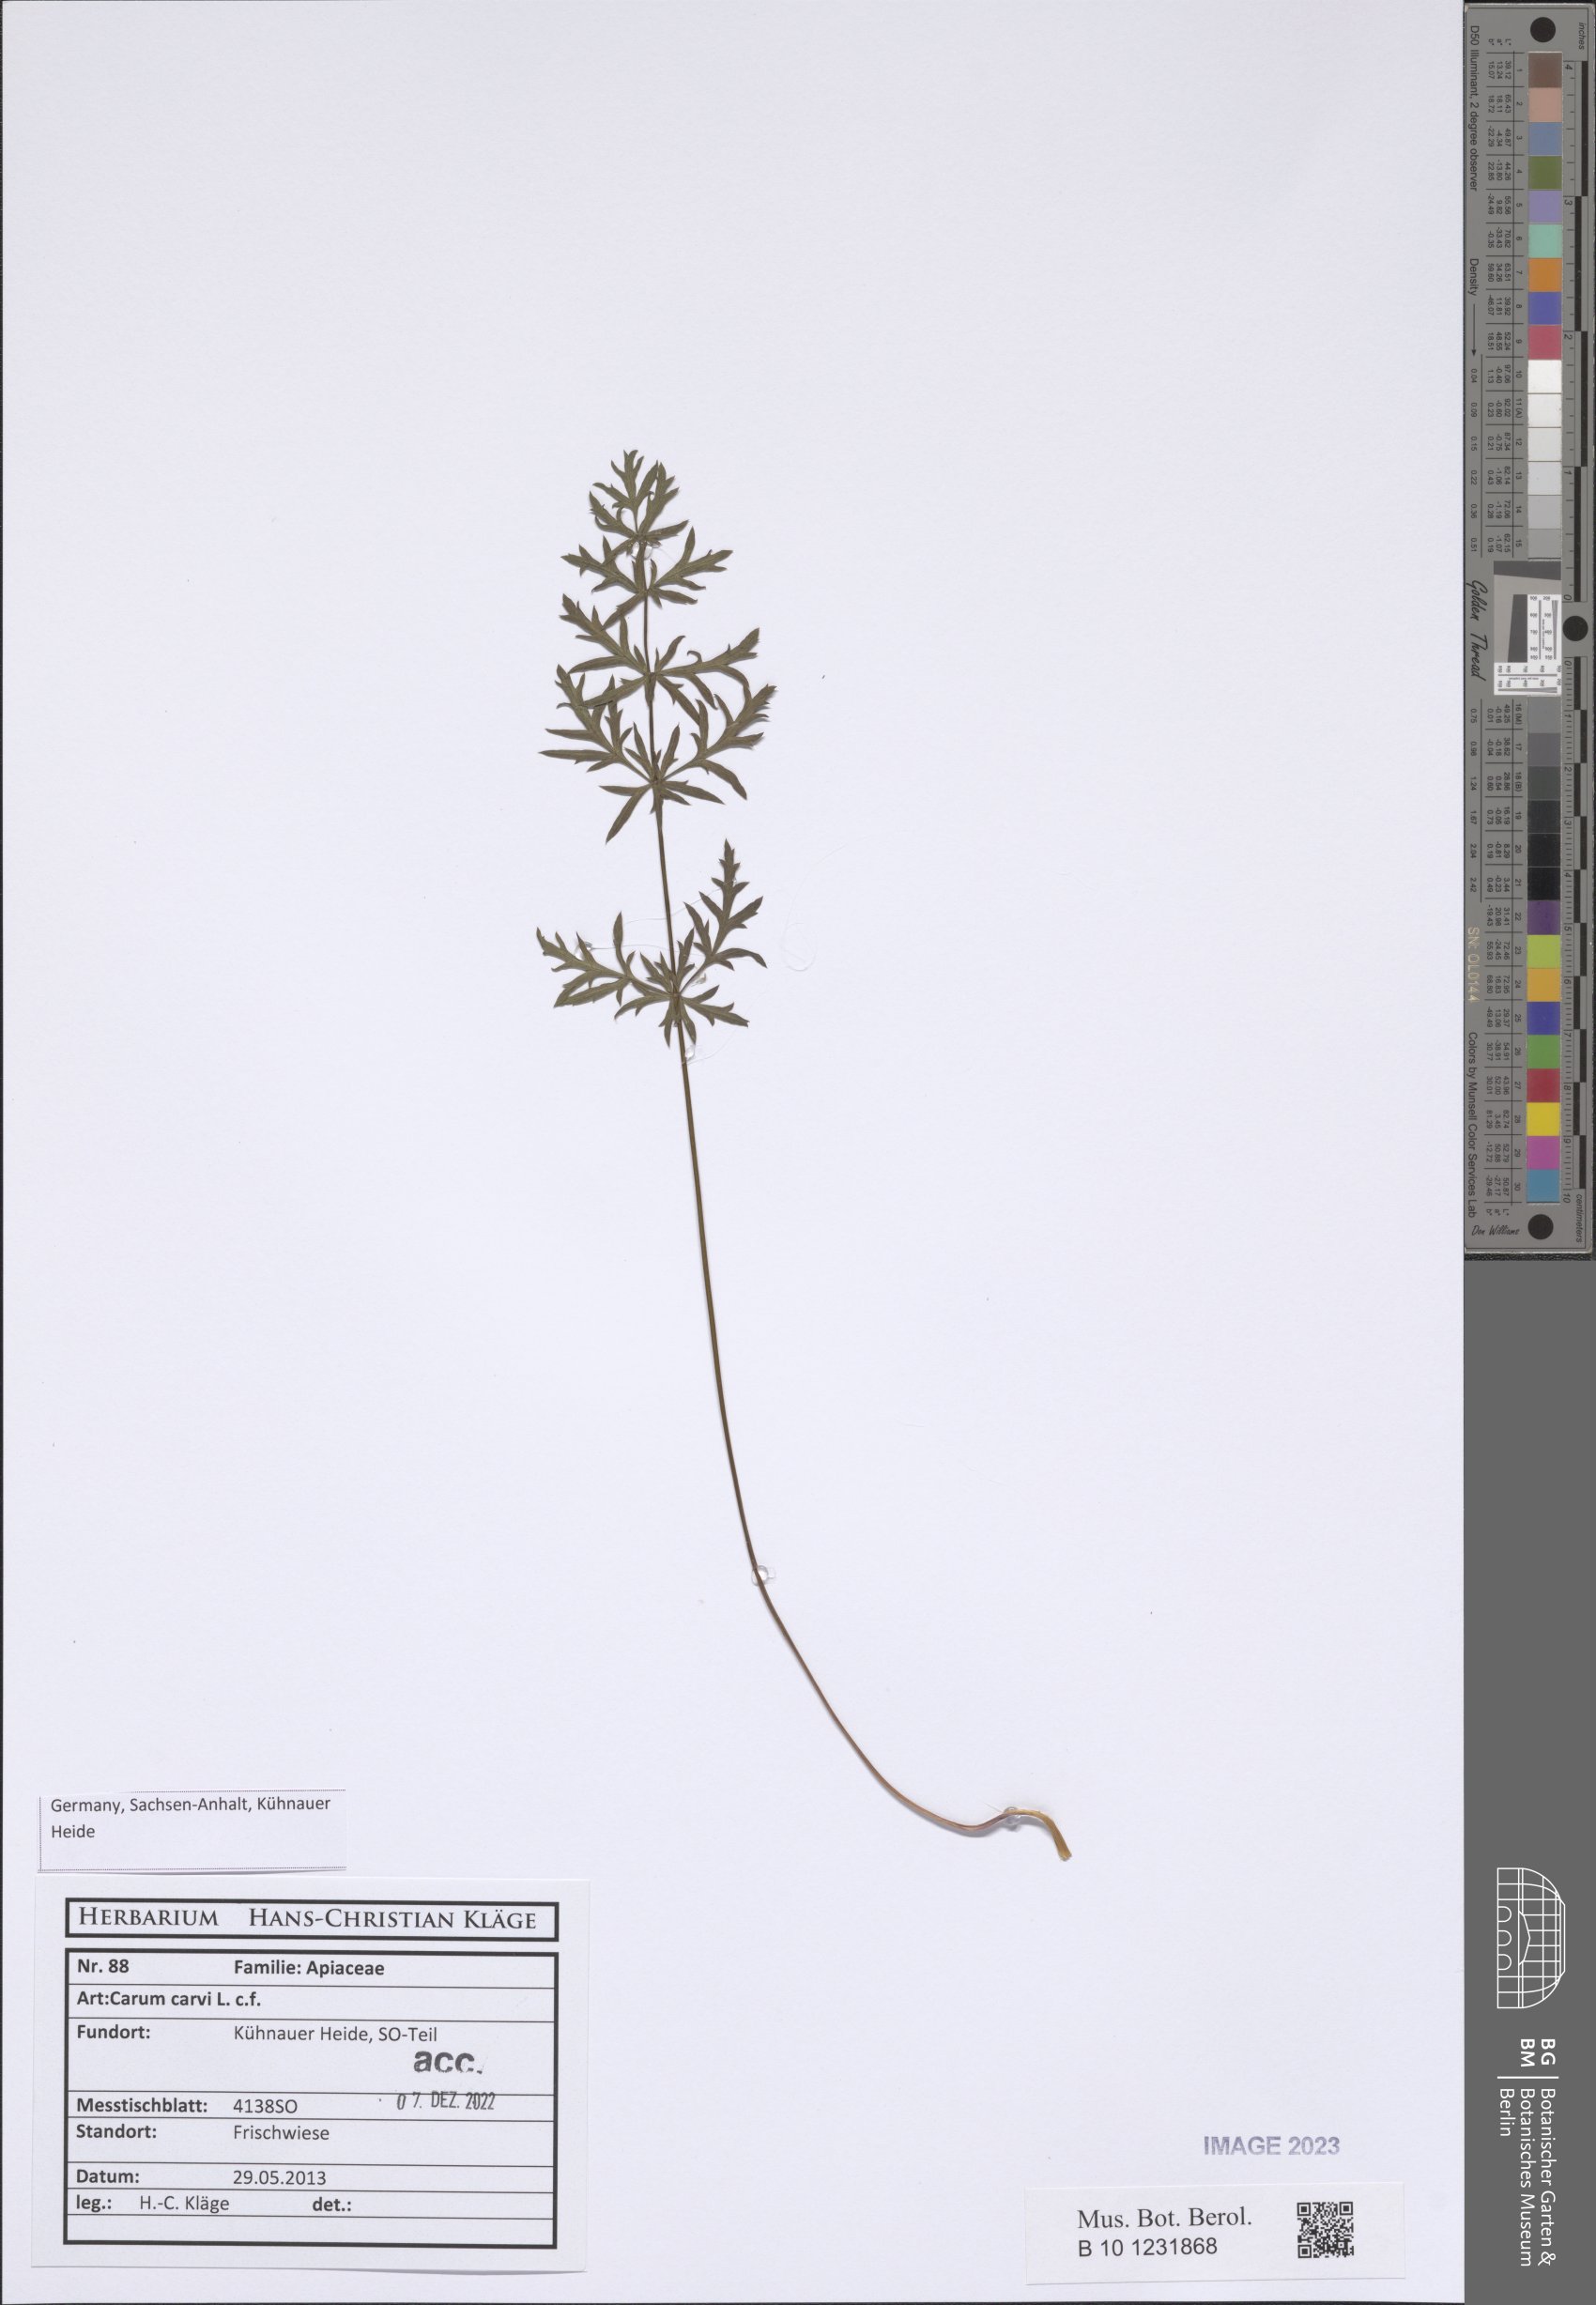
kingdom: Plantae
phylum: Tracheophyta
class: Magnoliopsida
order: Apiales
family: Apiaceae
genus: Carum
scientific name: Carum carvi
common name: Caraway
